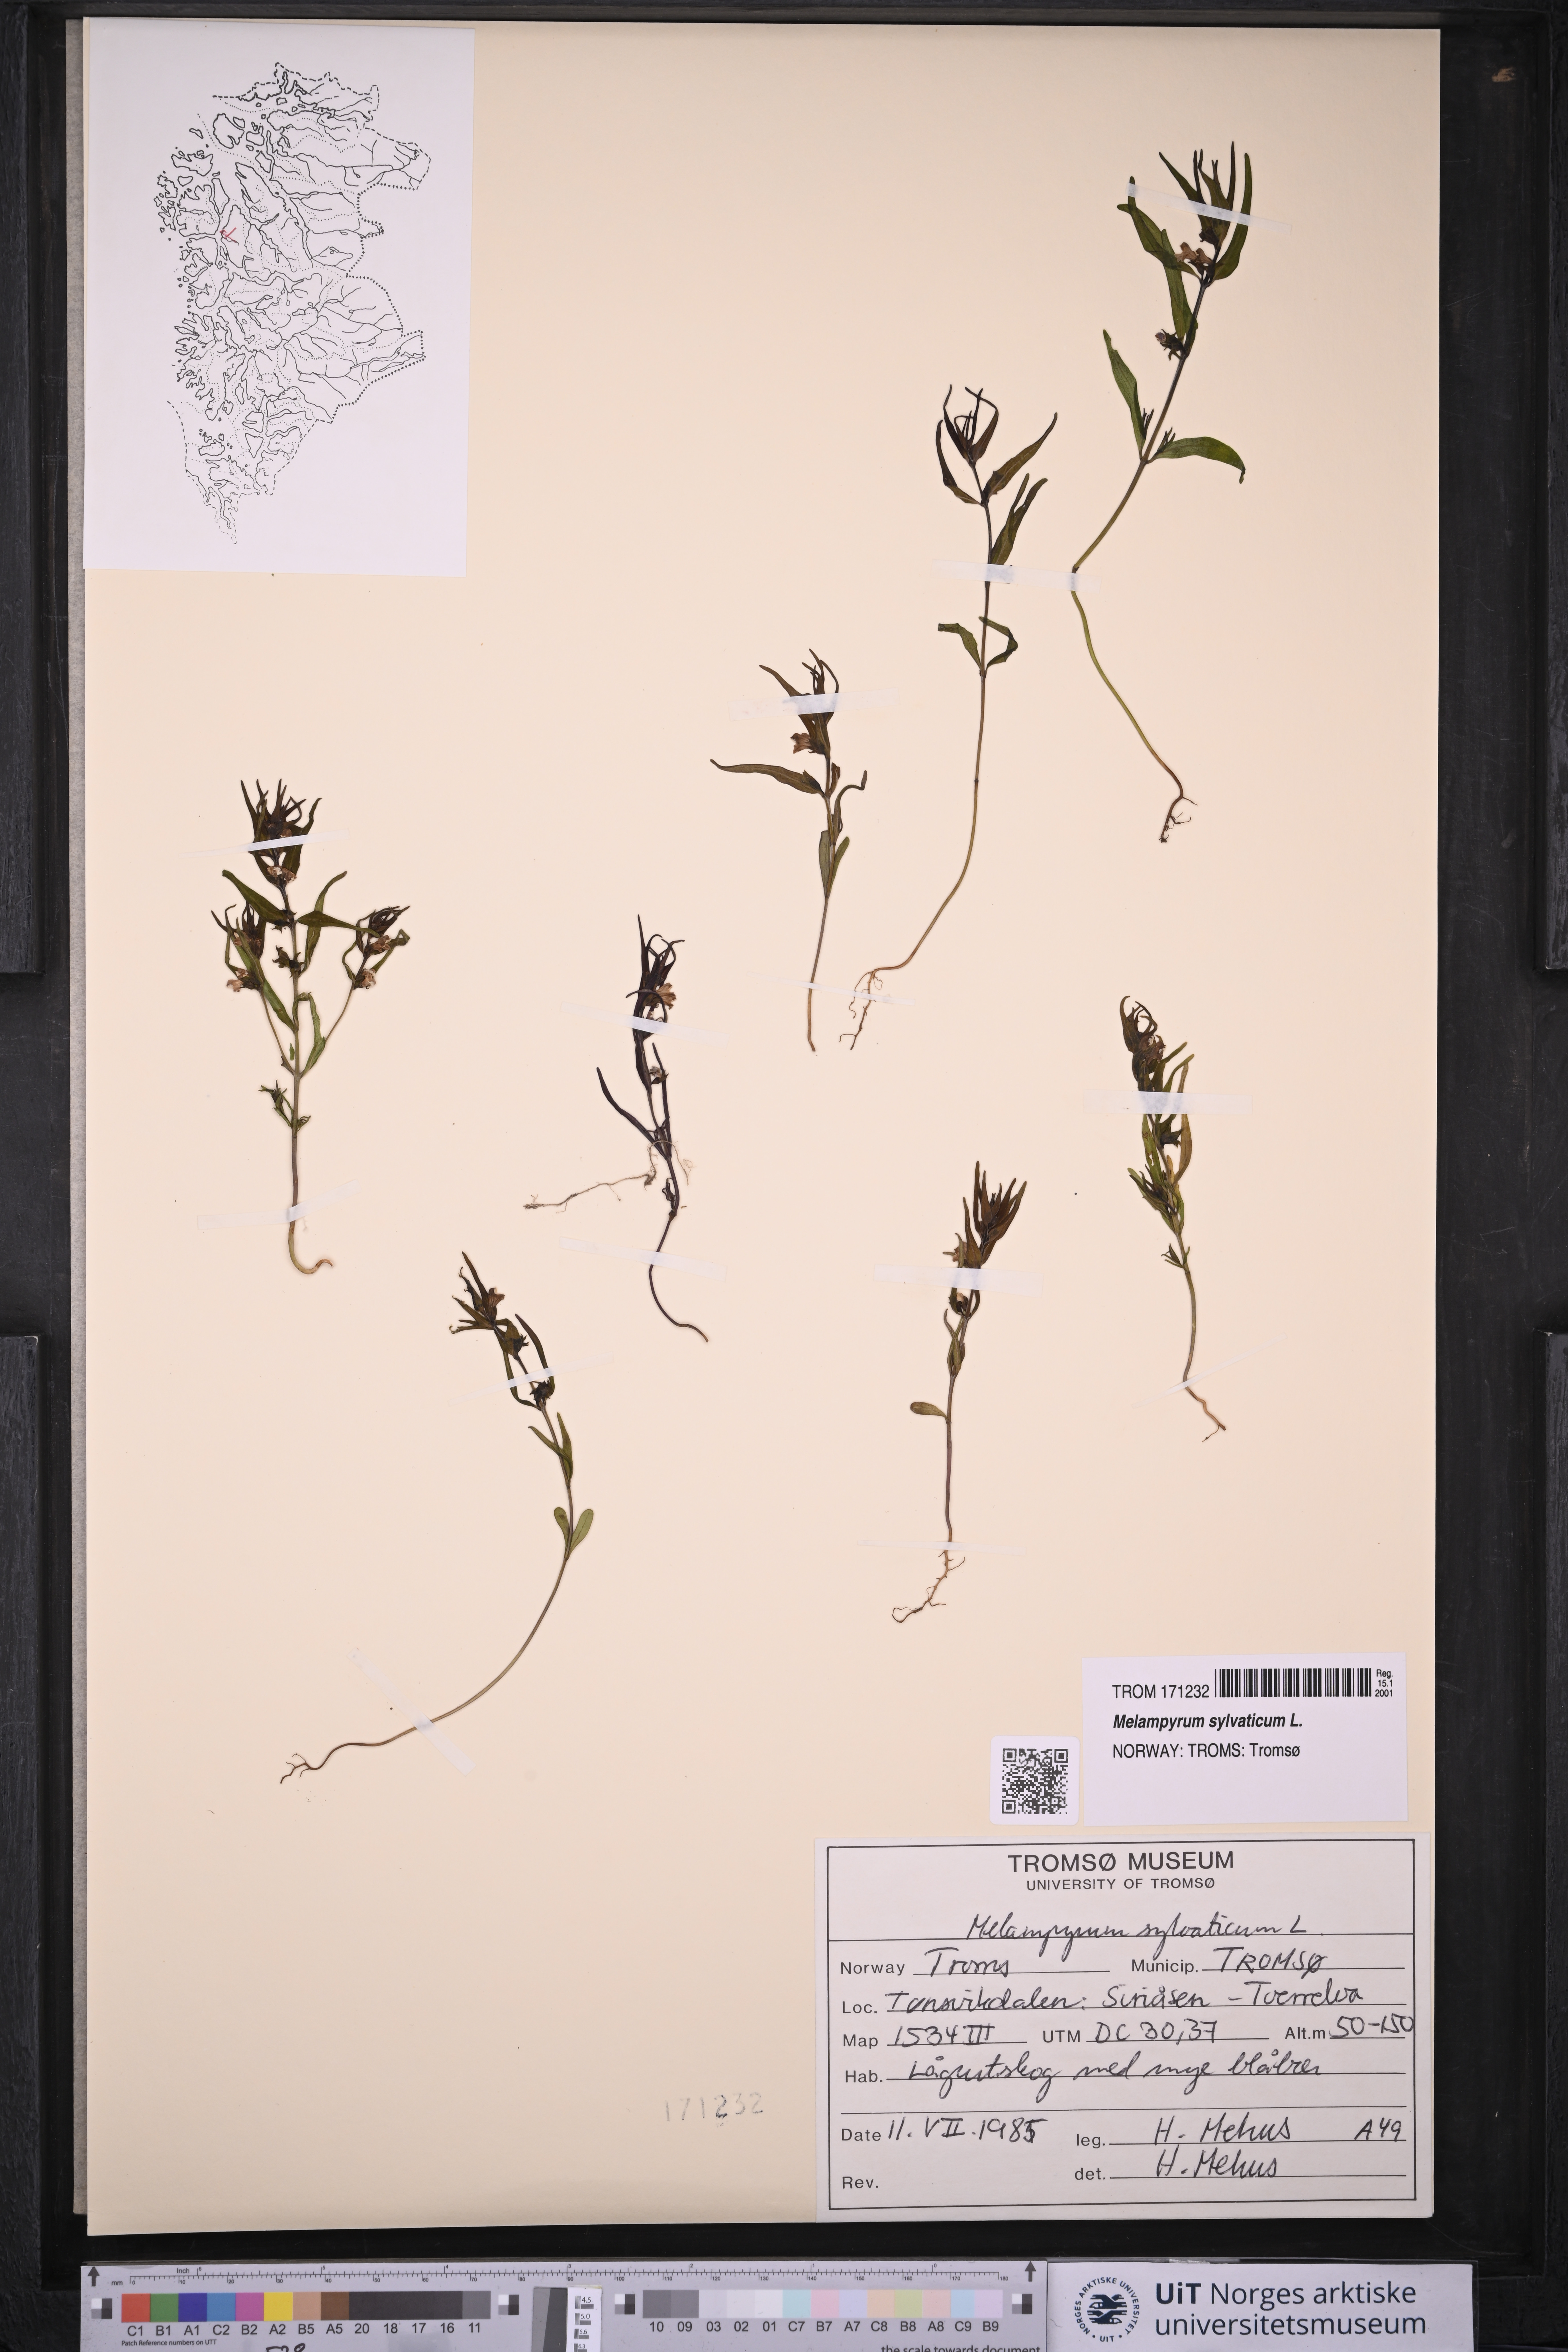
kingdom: Plantae
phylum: Tracheophyta
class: Magnoliopsida
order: Lamiales
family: Orobanchaceae
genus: Melampyrum
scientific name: Melampyrum sylvaticum
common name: Small cow-wheat
